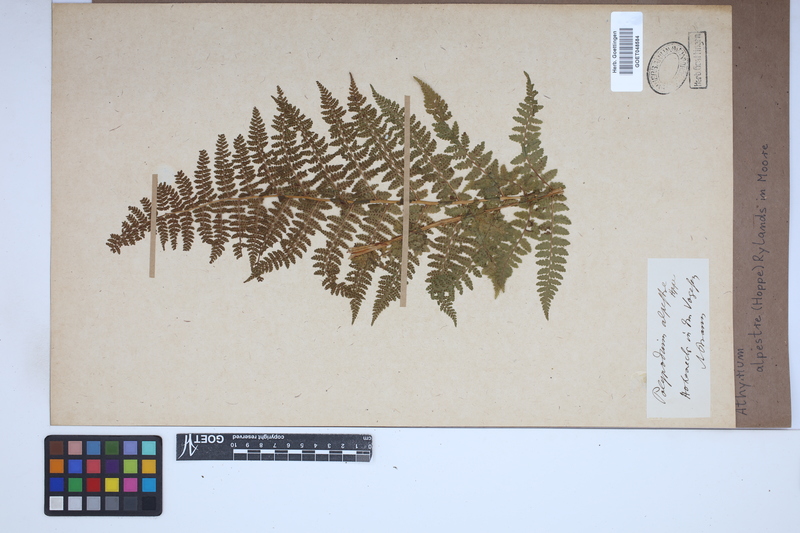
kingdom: Plantae
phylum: Tracheophyta
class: Polypodiopsida
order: Polypodiales
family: Athyriaceae
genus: Pseudathyrium
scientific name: Pseudathyrium alpestre
